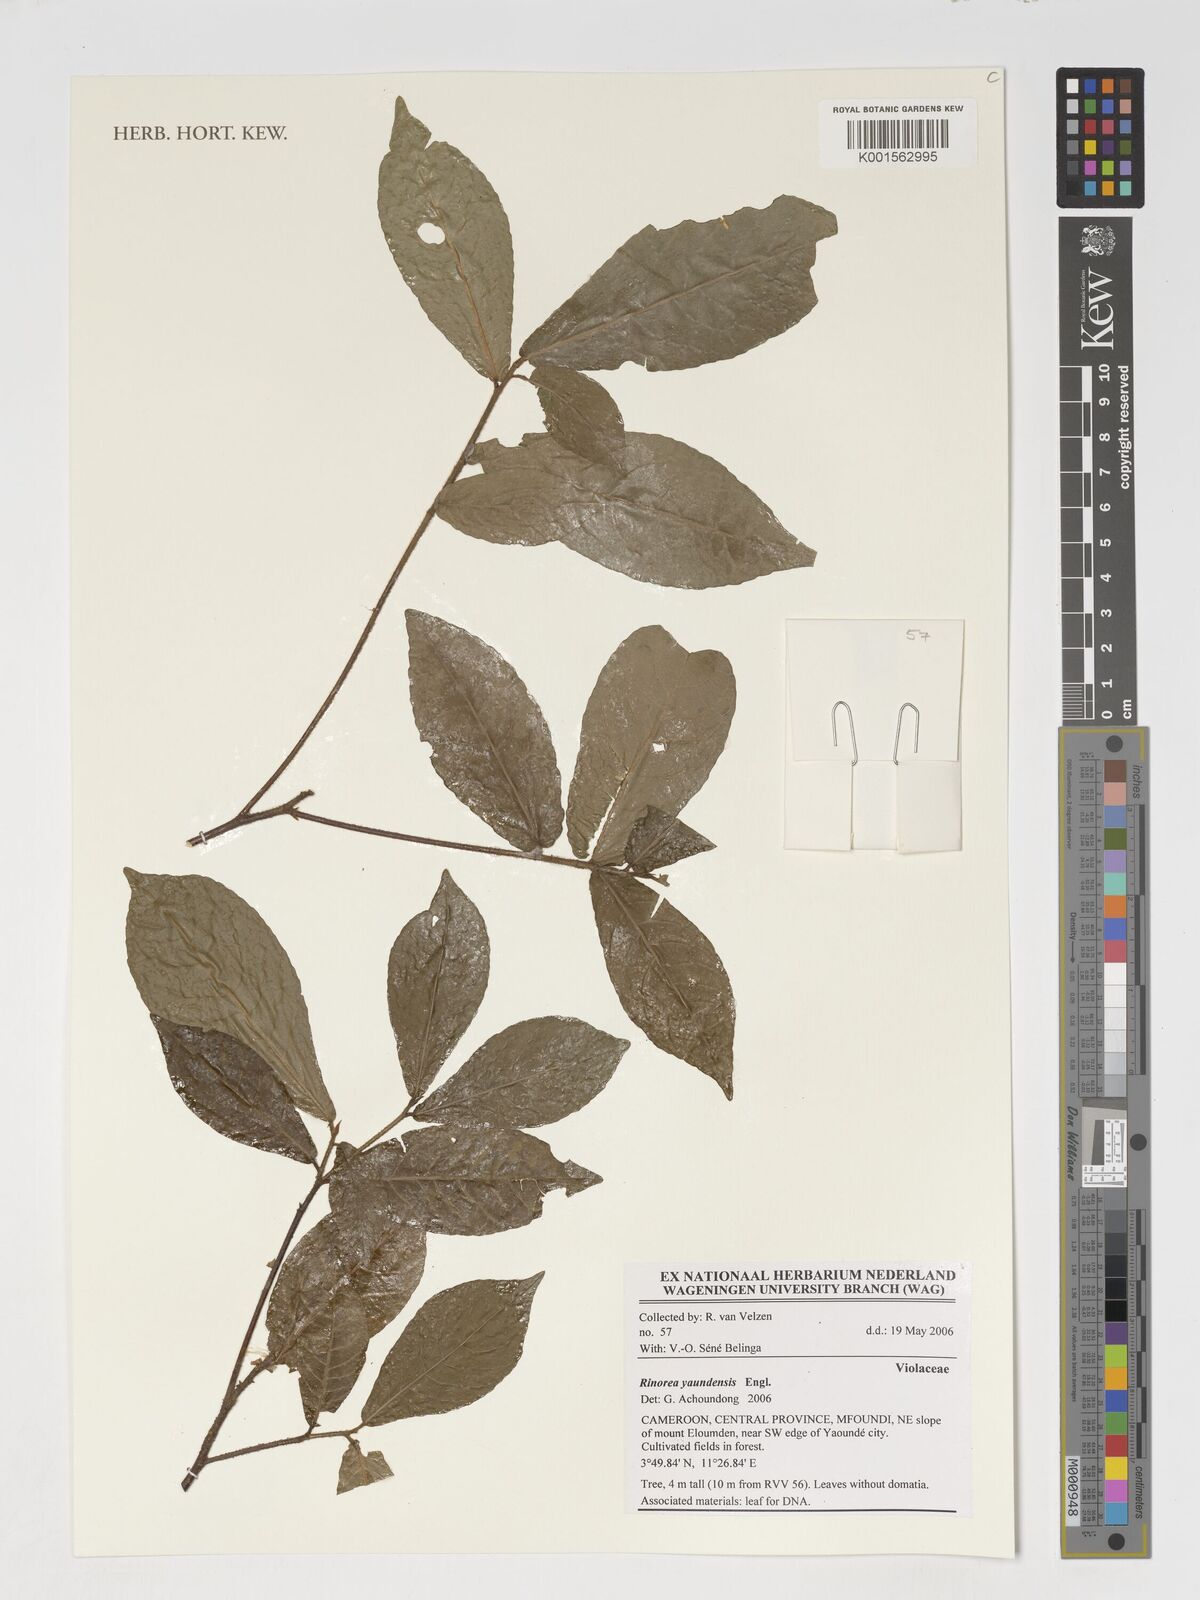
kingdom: Plantae
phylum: Tracheophyta
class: Magnoliopsida
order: Malpighiales
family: Violaceae
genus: Rinorea
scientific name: Rinorea yaundensis
